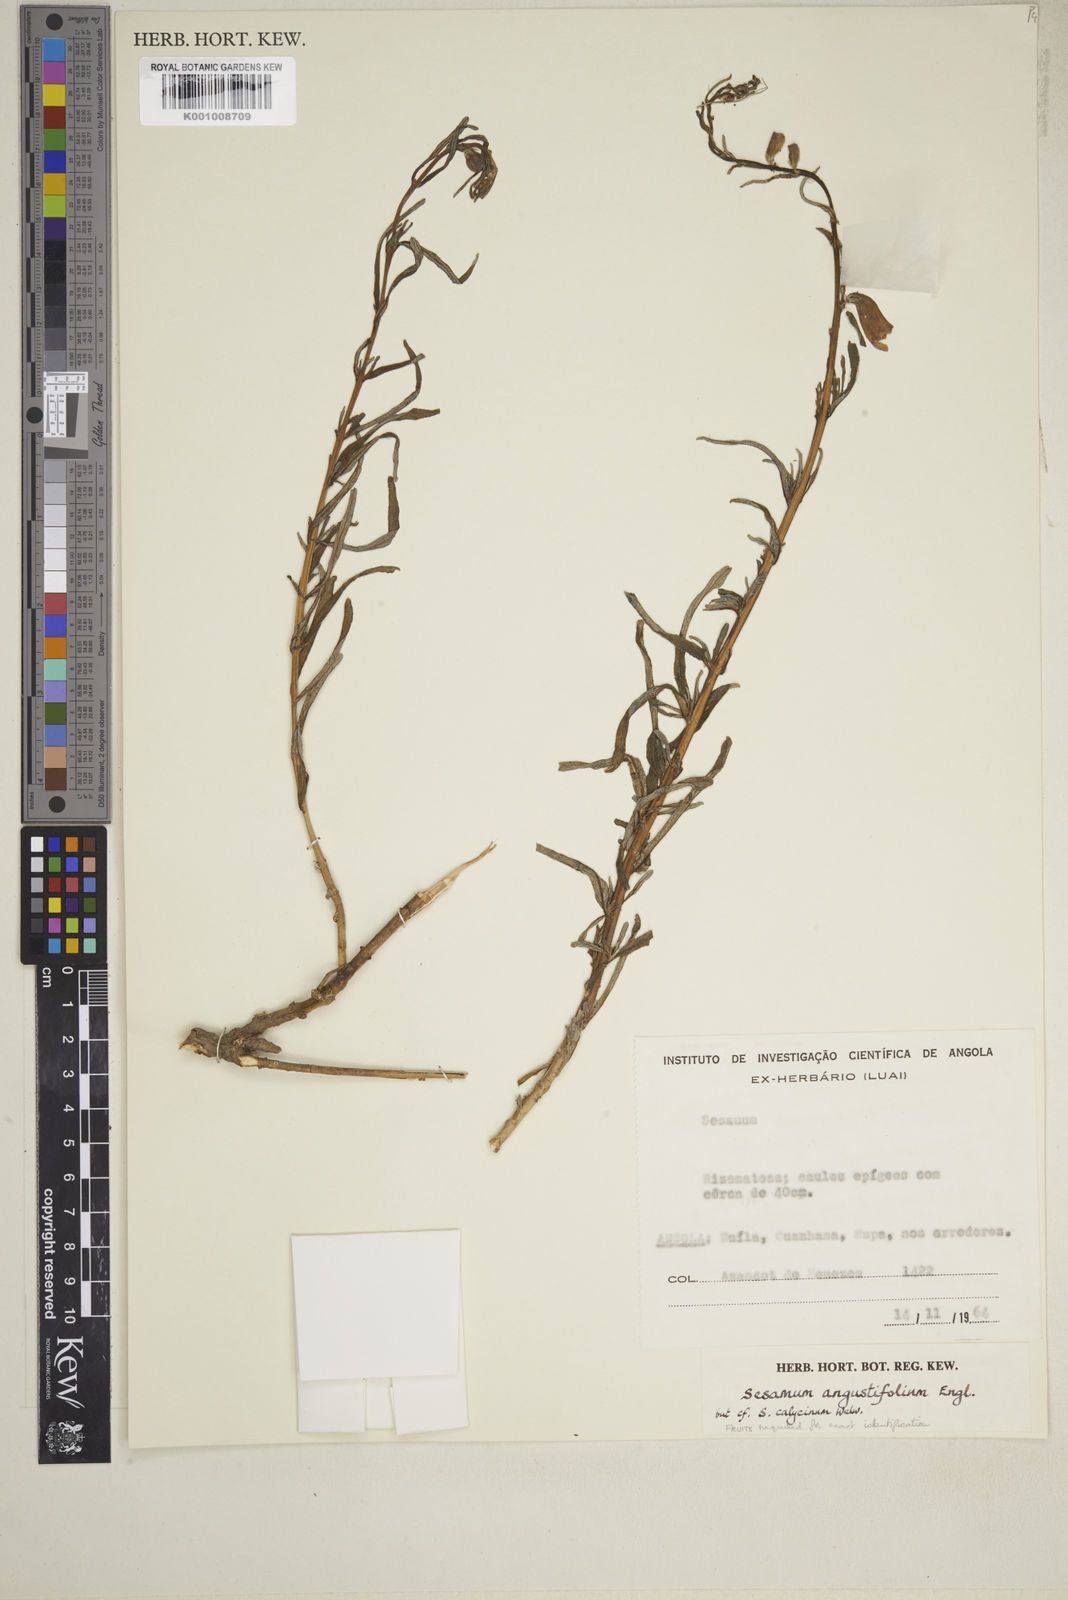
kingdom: Plantae
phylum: Tracheophyta
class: Magnoliopsida
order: Lamiales
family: Pedaliaceae
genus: Sesamum
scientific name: Sesamum calycinum
